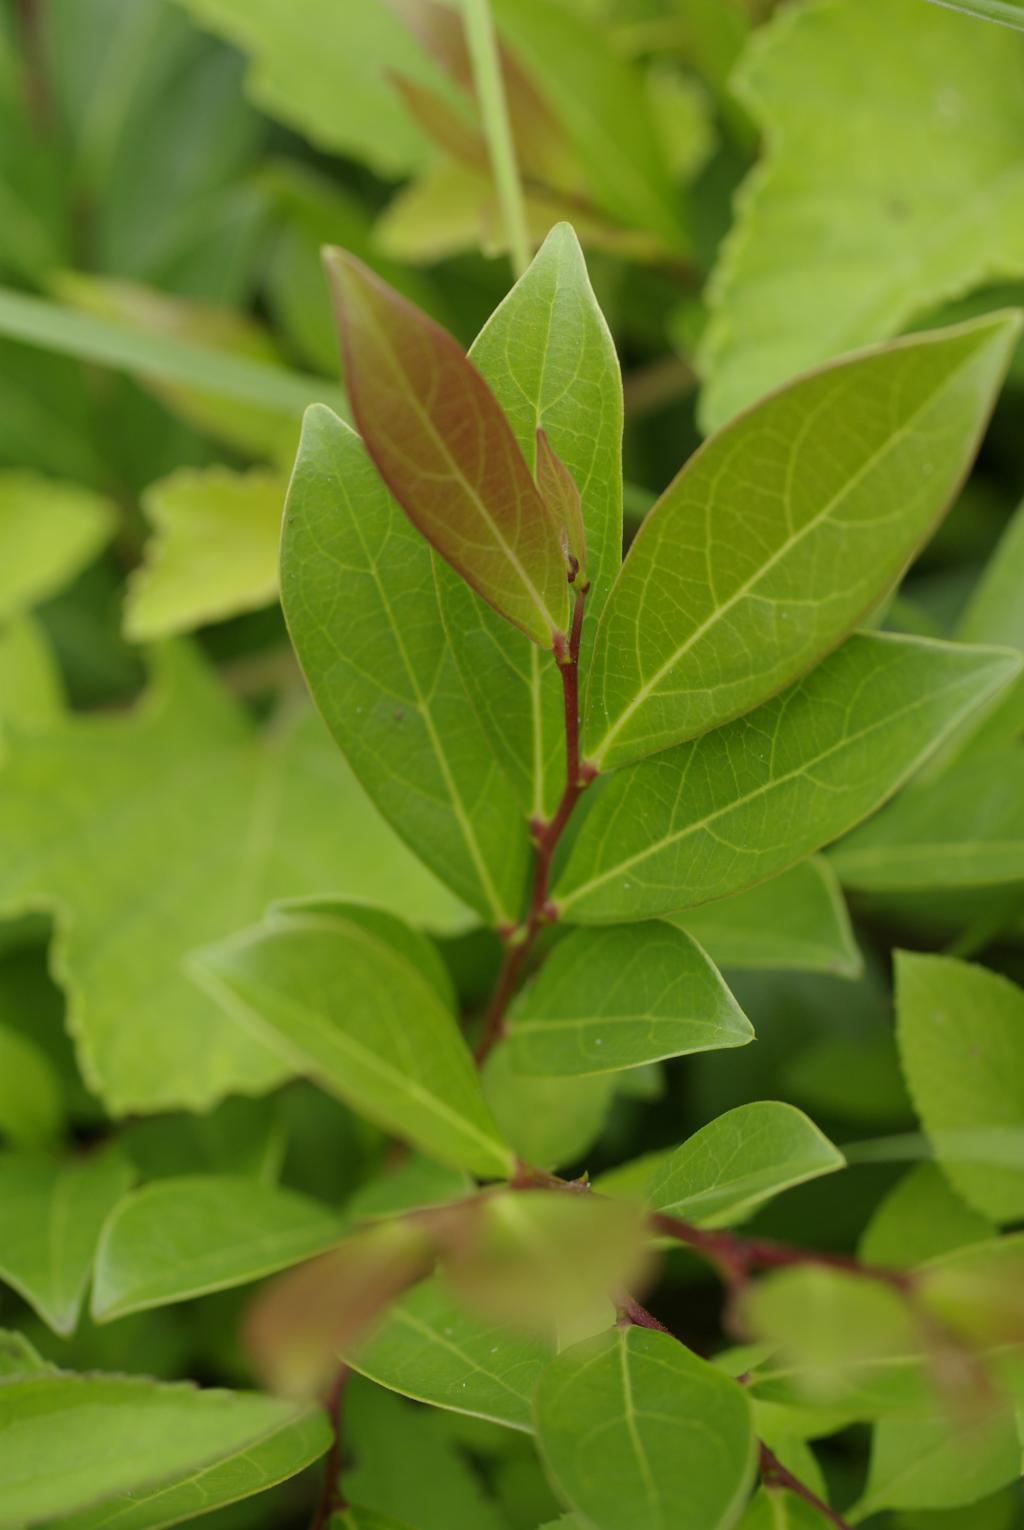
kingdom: Plantae
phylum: Tracheophyta
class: Magnoliopsida
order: Malpighiales
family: Phyllanthaceae
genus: Glochidion
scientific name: Glochidion rubrum
